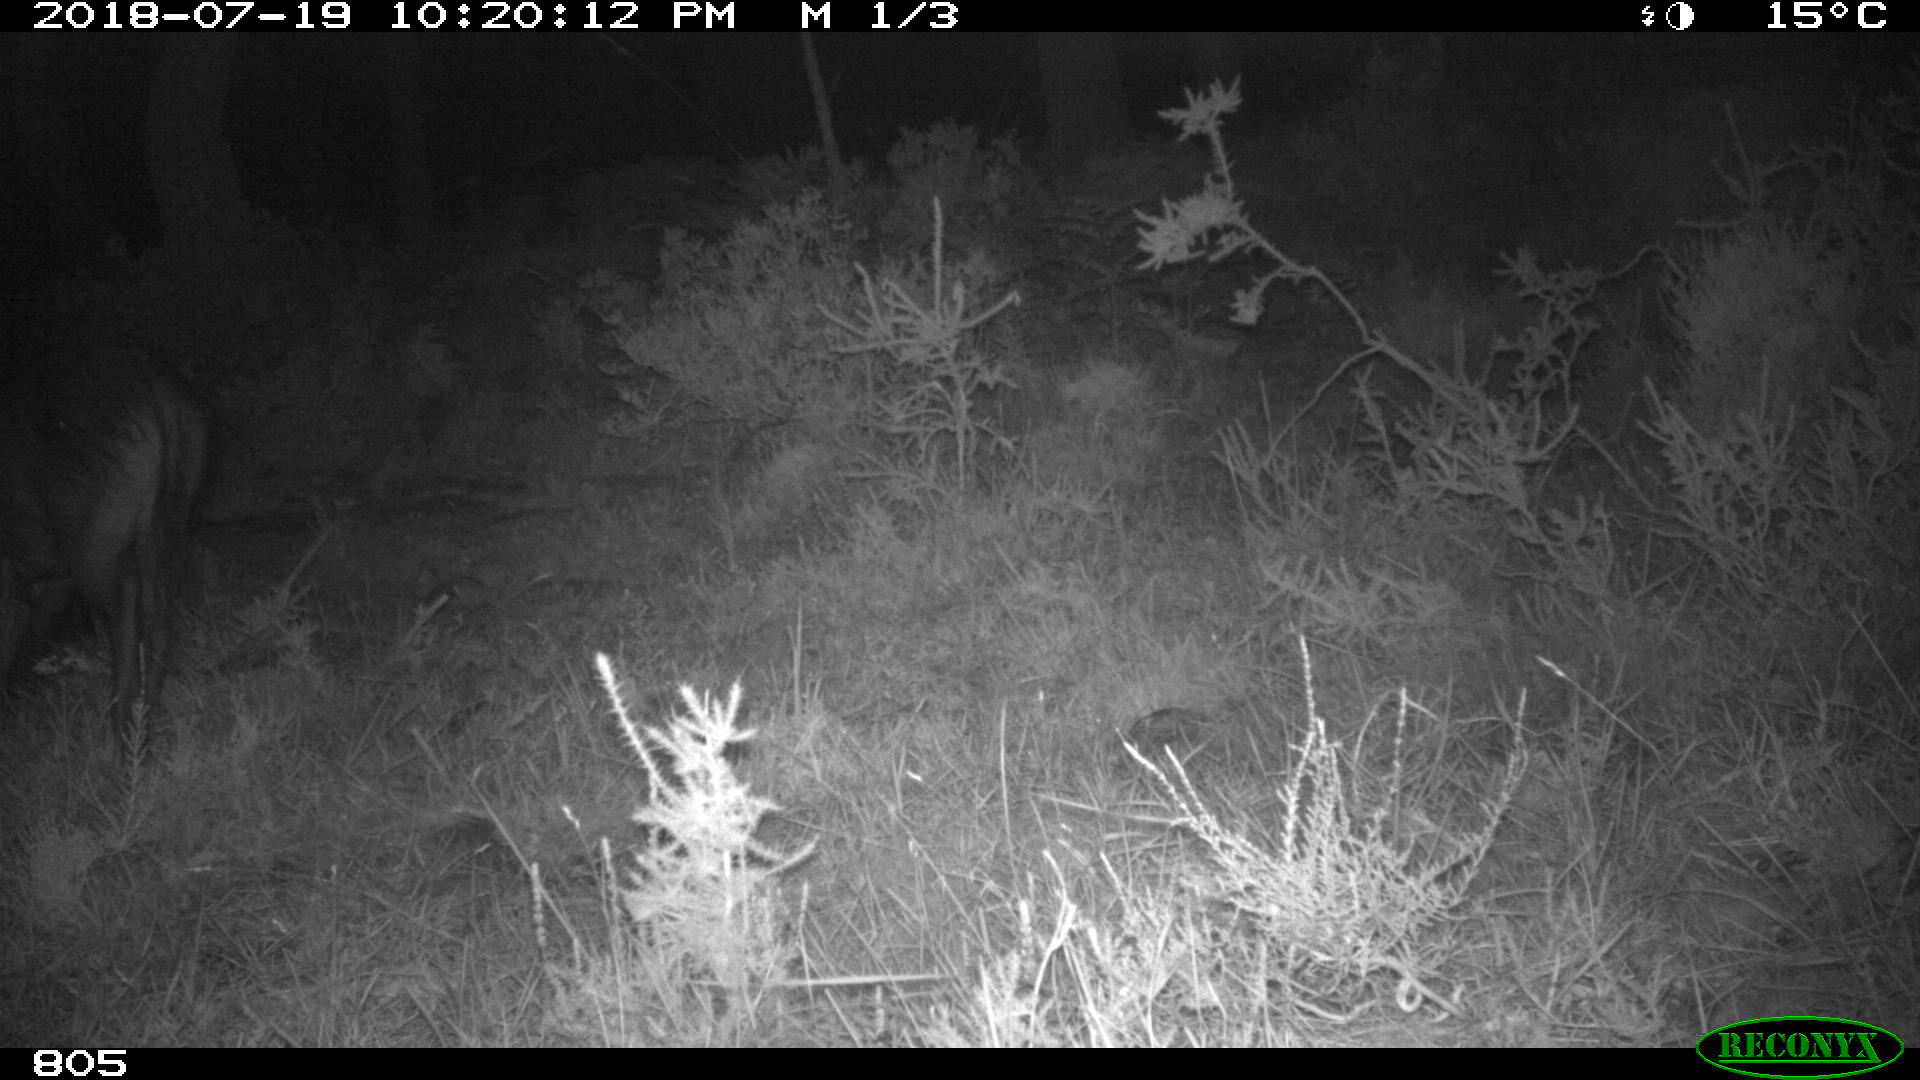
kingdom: Animalia
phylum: Chordata
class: Mammalia
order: Artiodactyla
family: Suidae
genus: Sus
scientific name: Sus scrofa
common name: Wild boar
